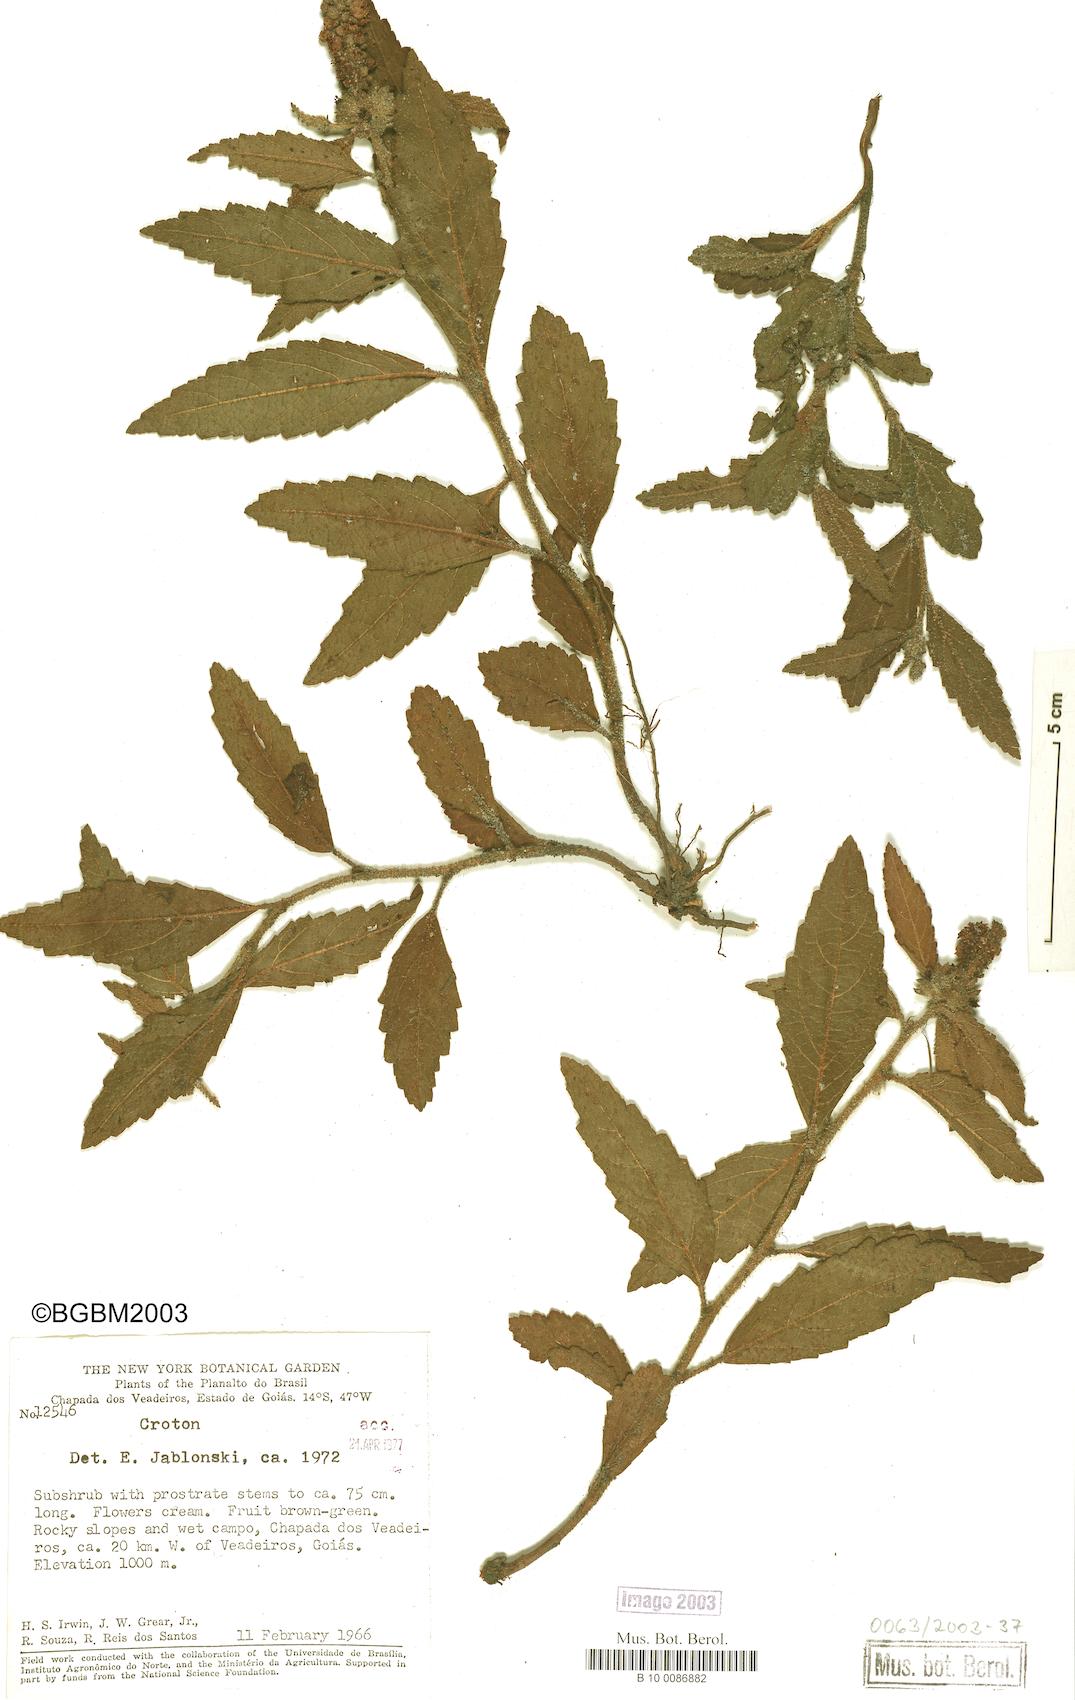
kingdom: Plantae
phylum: Tracheophyta
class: Magnoliopsida
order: Malpighiales
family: Euphorbiaceae
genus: Croton
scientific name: Croton
